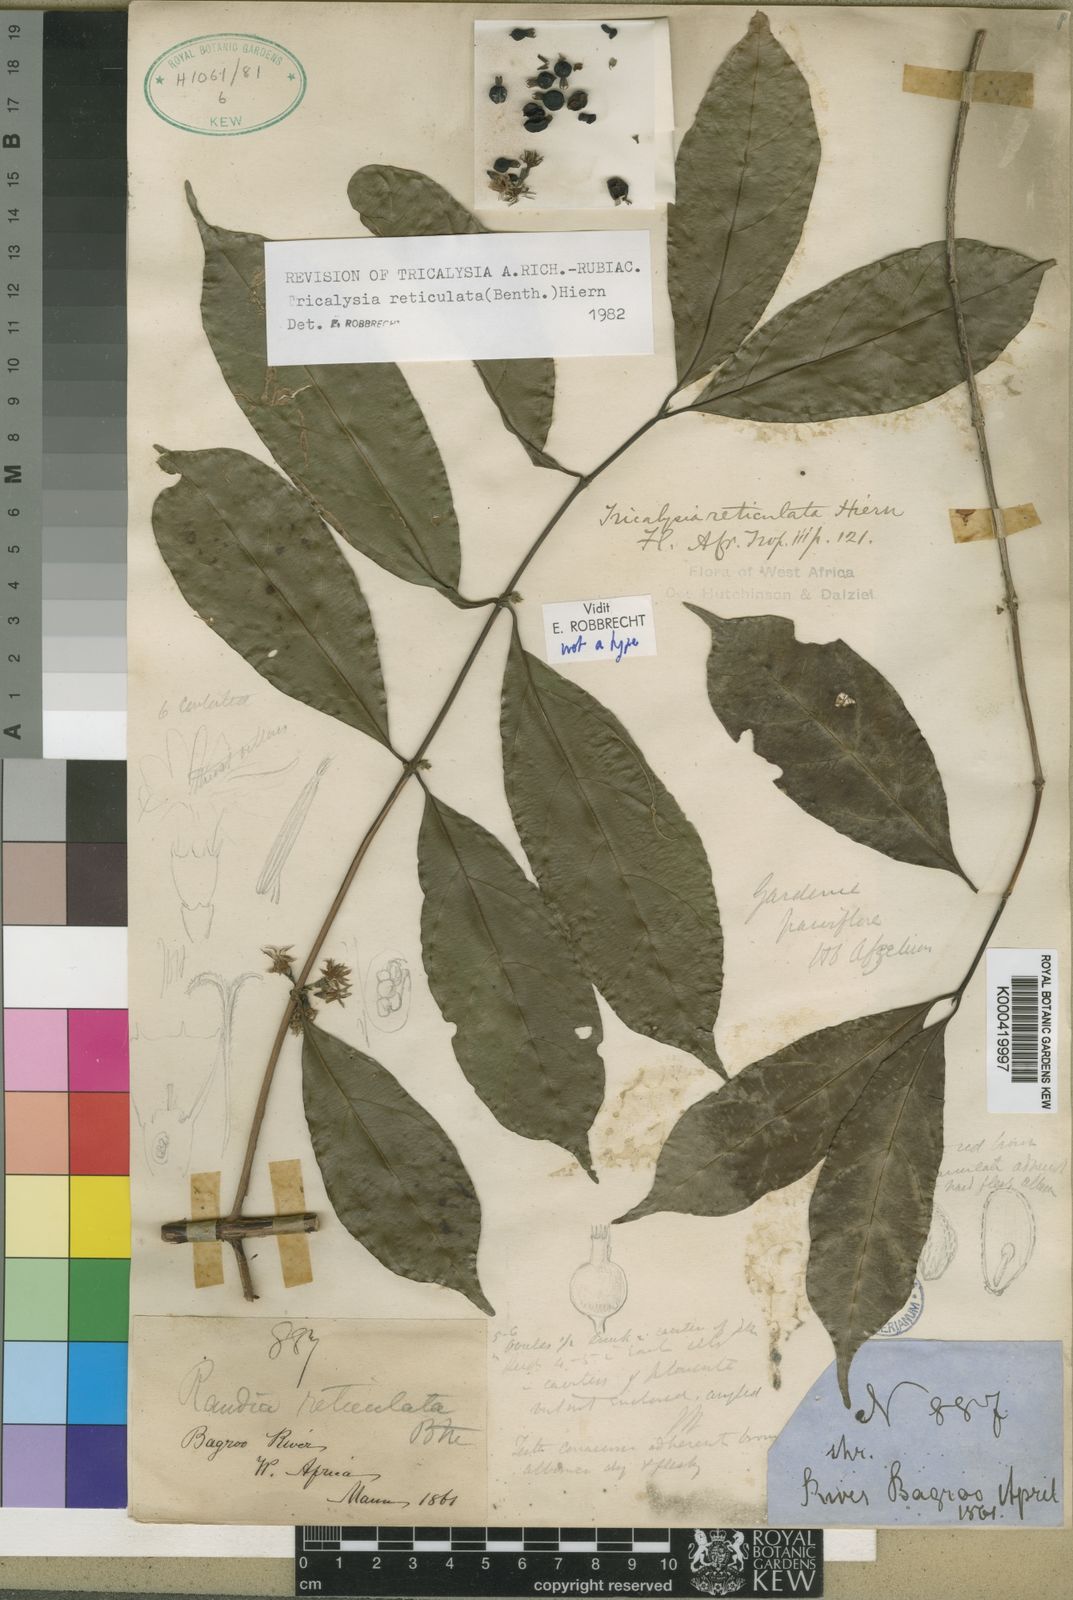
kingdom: Plantae
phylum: Tracheophyta
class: Magnoliopsida
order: Gentianales
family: Rubiaceae
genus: Tricalysia
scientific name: Tricalysia reticulata
